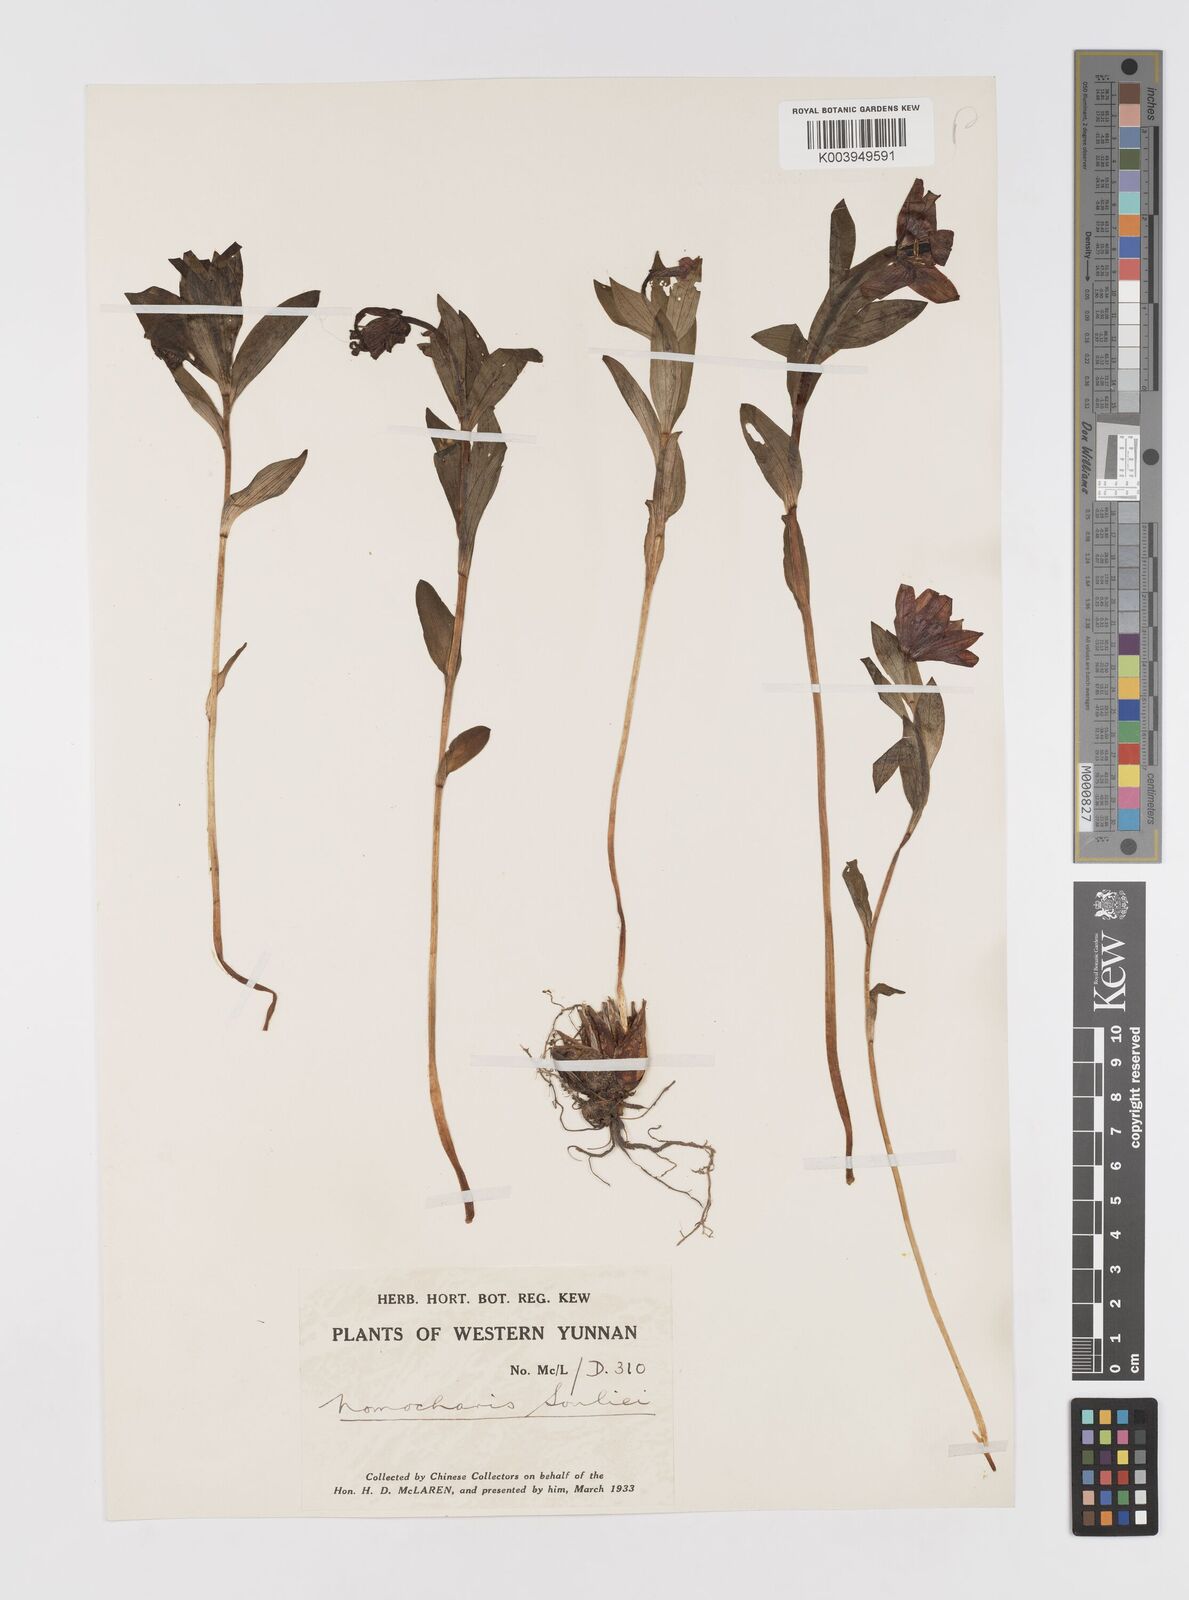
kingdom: Plantae
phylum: Tracheophyta
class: Liliopsida
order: Liliales
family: Liliaceae
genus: Lilium
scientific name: Lilium souliei
